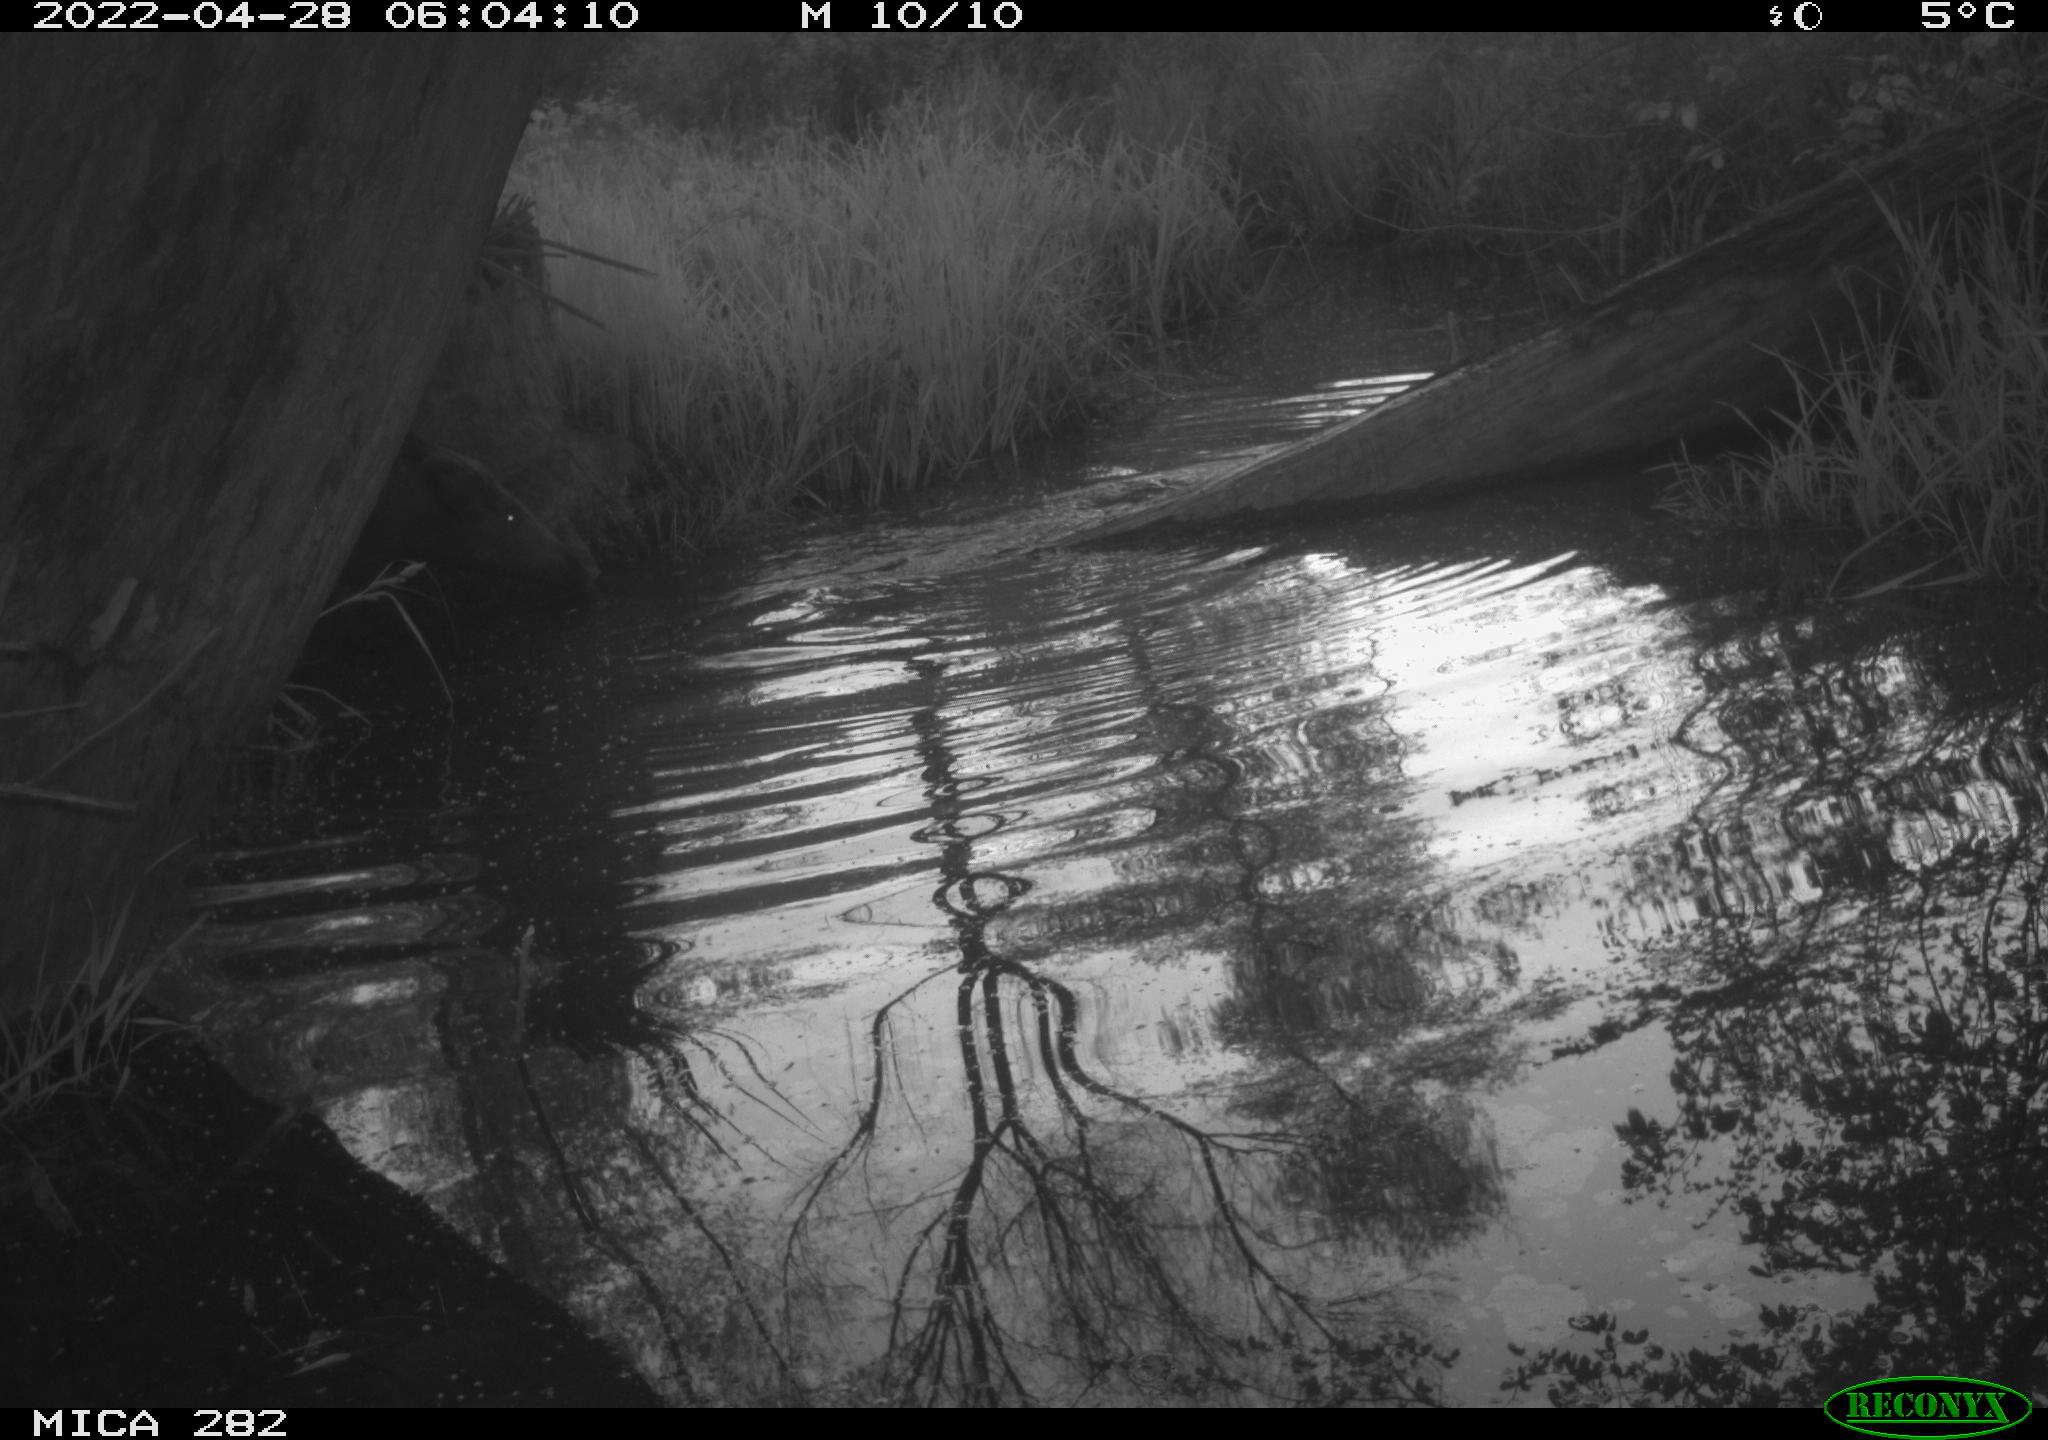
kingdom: Animalia
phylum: Chordata
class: Mammalia
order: Artiodactyla
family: Suidae
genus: Sus
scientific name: Sus scrofa
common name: Wild boar
